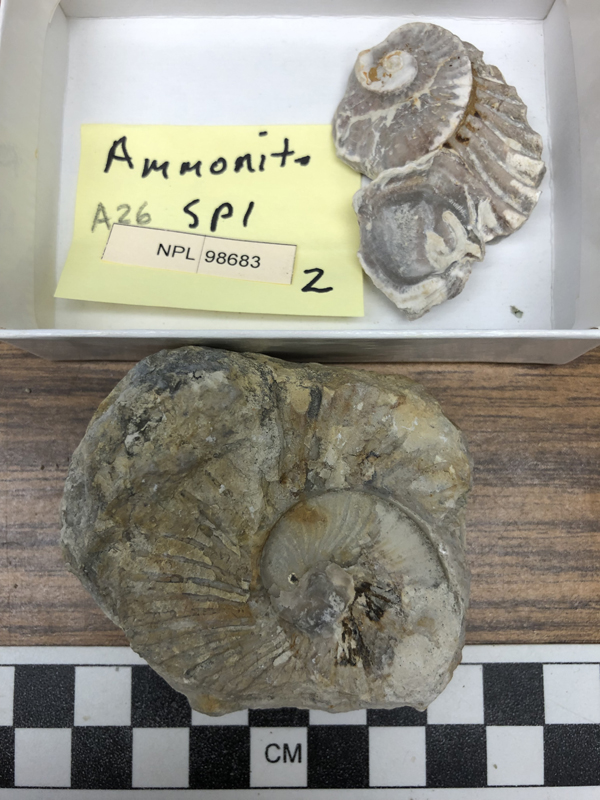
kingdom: Animalia
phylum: Mollusca
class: Cephalopoda
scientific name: Cephalopoda
